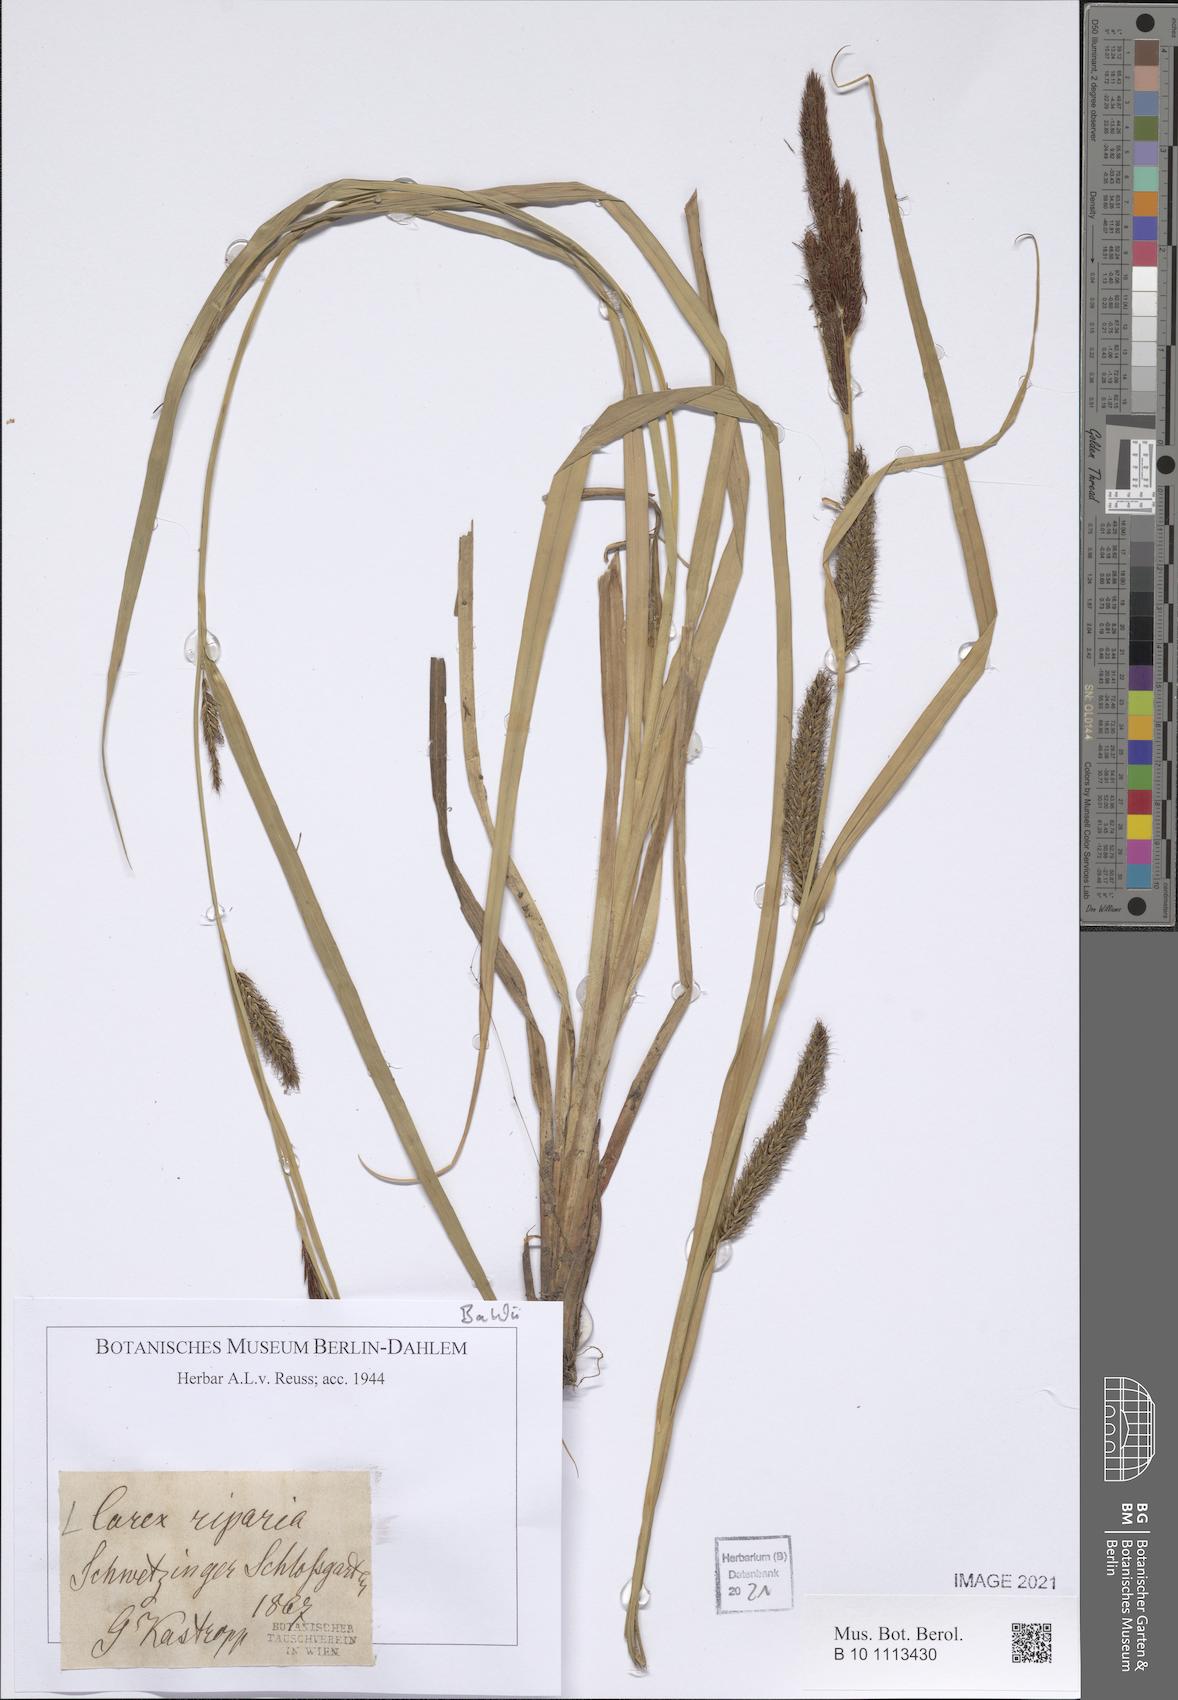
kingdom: Plantae
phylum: Tracheophyta
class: Liliopsida
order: Poales
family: Cyperaceae
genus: Carex
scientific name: Carex riparia
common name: Greater pond-sedge
